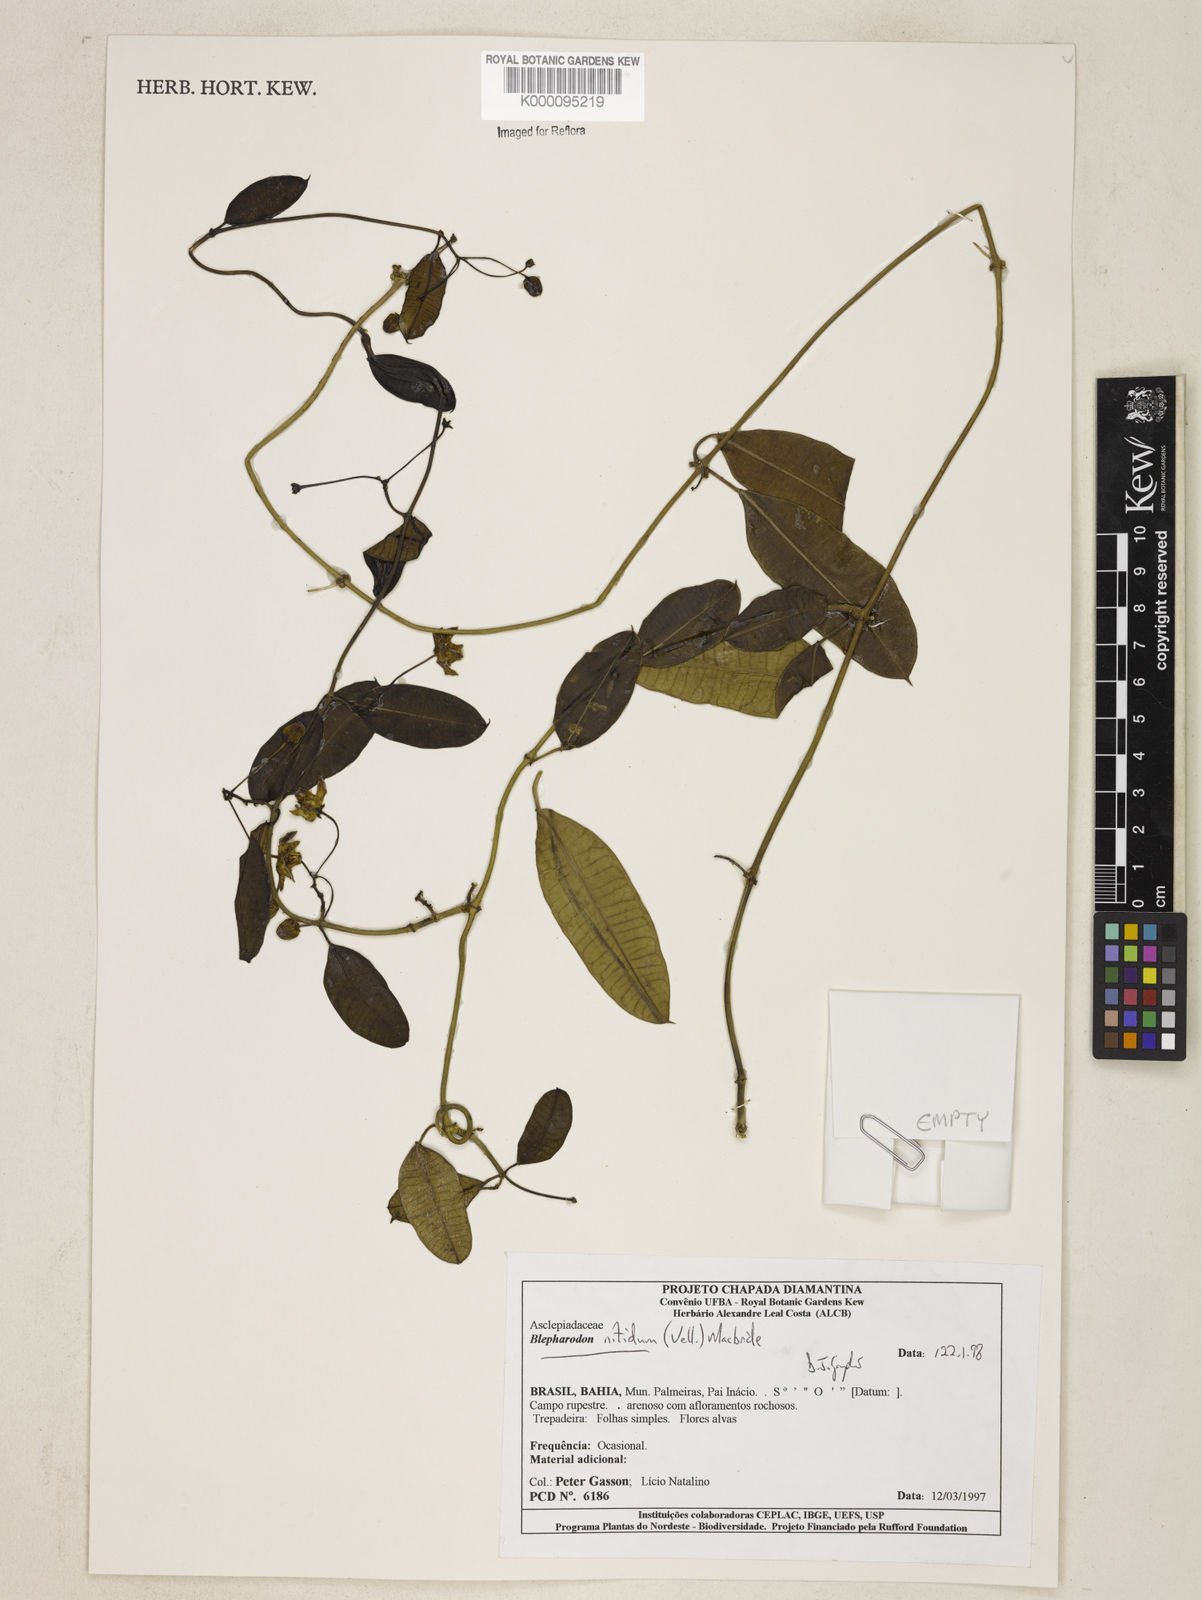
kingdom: Plantae
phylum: Tracheophyta
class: Magnoliopsida
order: Gentianales
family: Apocynaceae
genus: Blepharodon
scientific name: Blepharodon pictum
